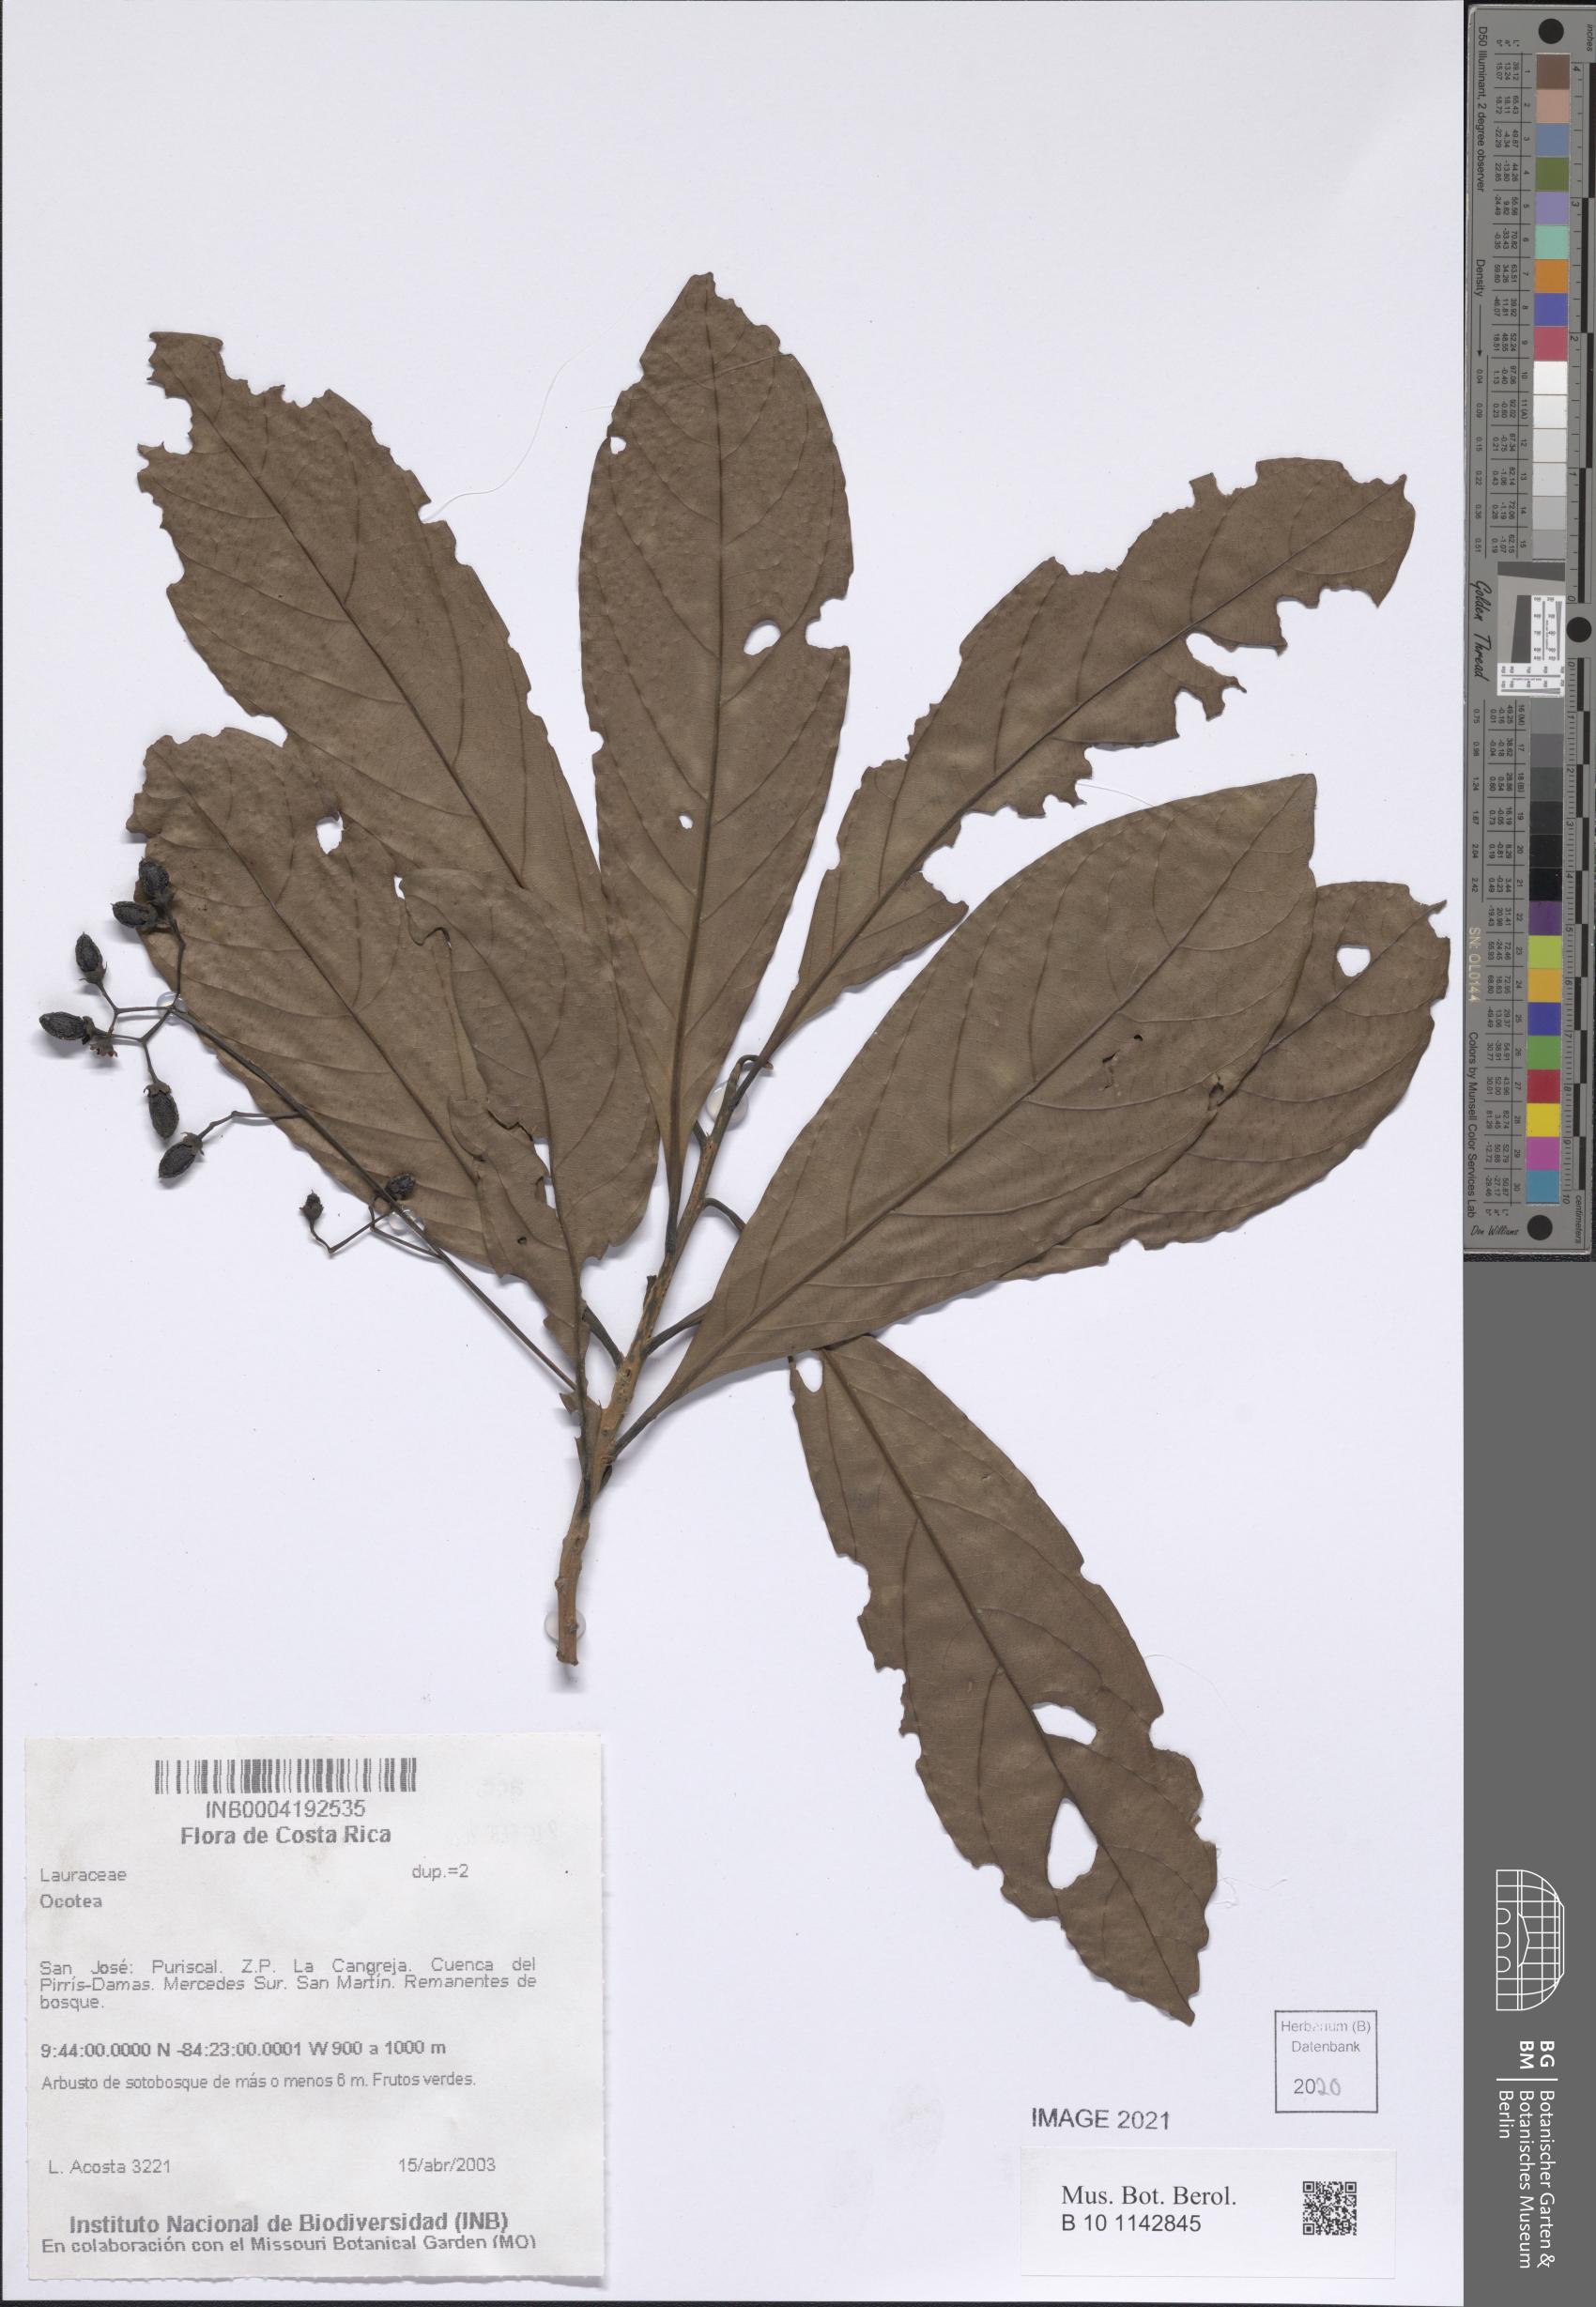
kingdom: Plantae
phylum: Tracheophyta
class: Magnoliopsida
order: Laurales
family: Lauraceae
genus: Ocotea
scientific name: Ocotea
